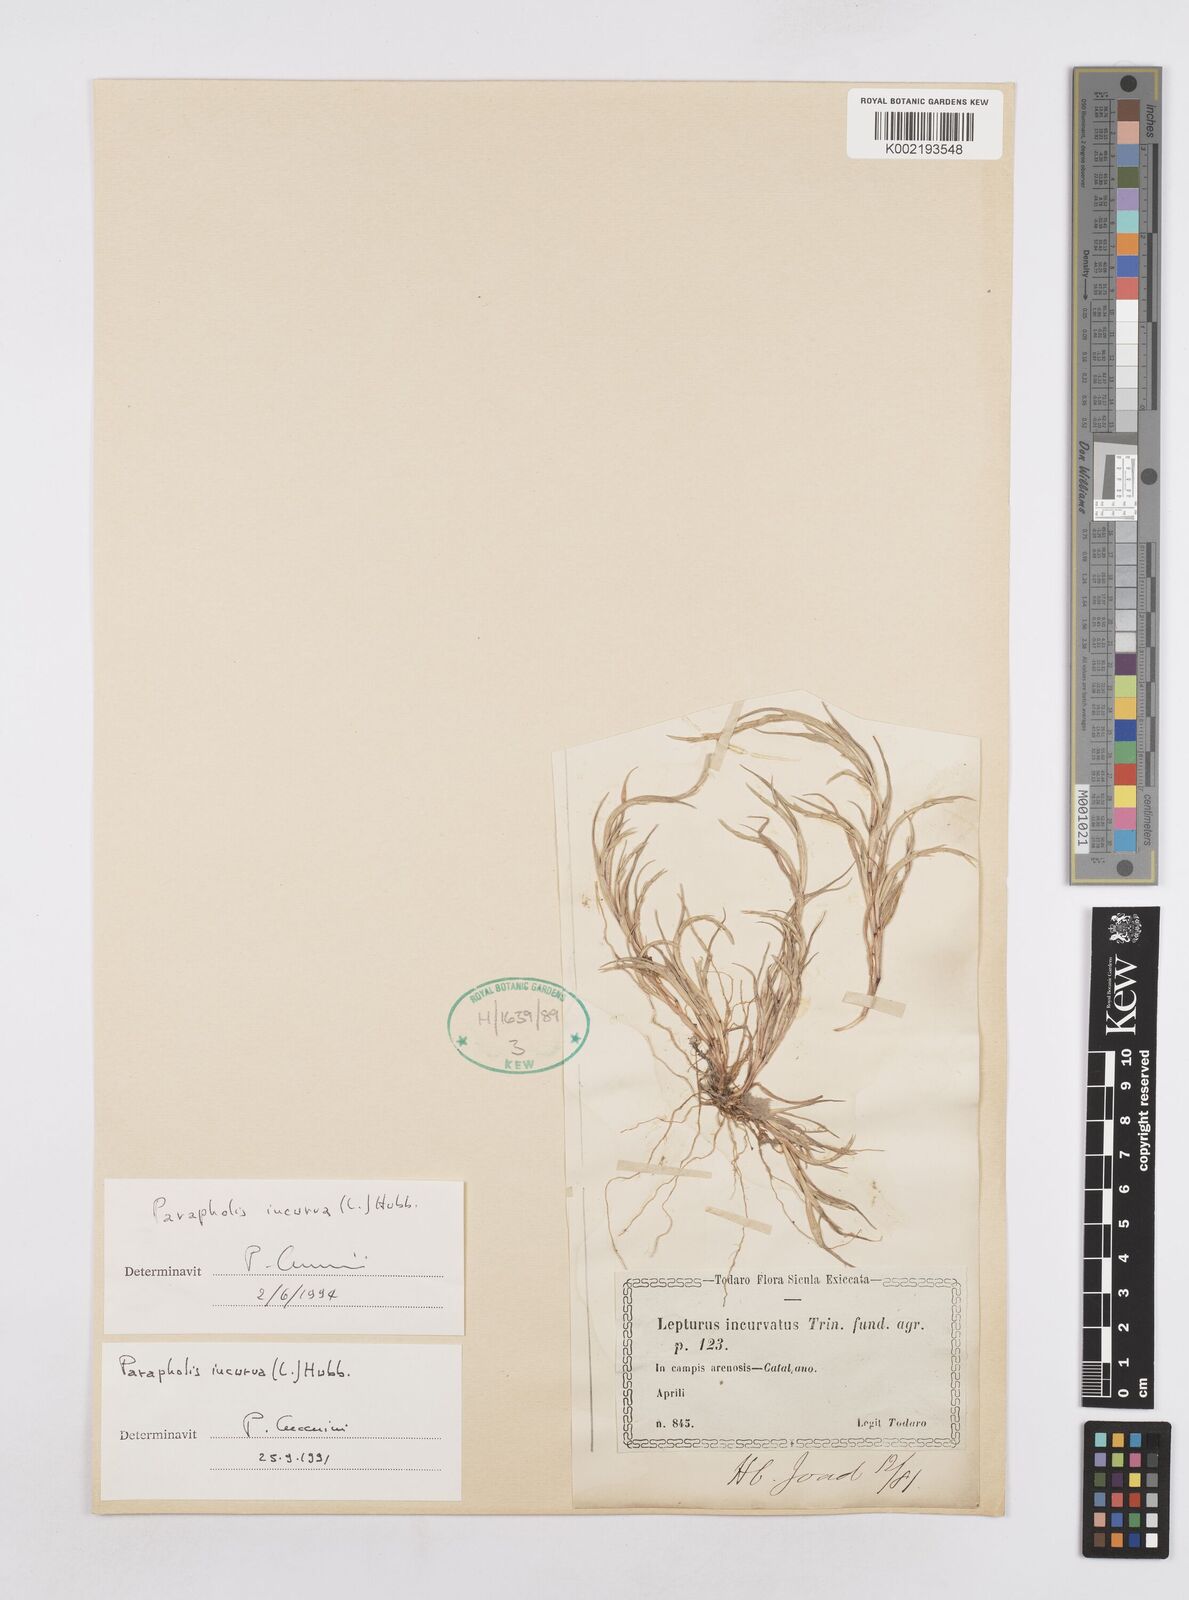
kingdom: Plantae
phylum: Tracheophyta
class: Liliopsida
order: Poales
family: Poaceae
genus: Parapholis
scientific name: Parapholis incurva
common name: Curved sicklegrass
